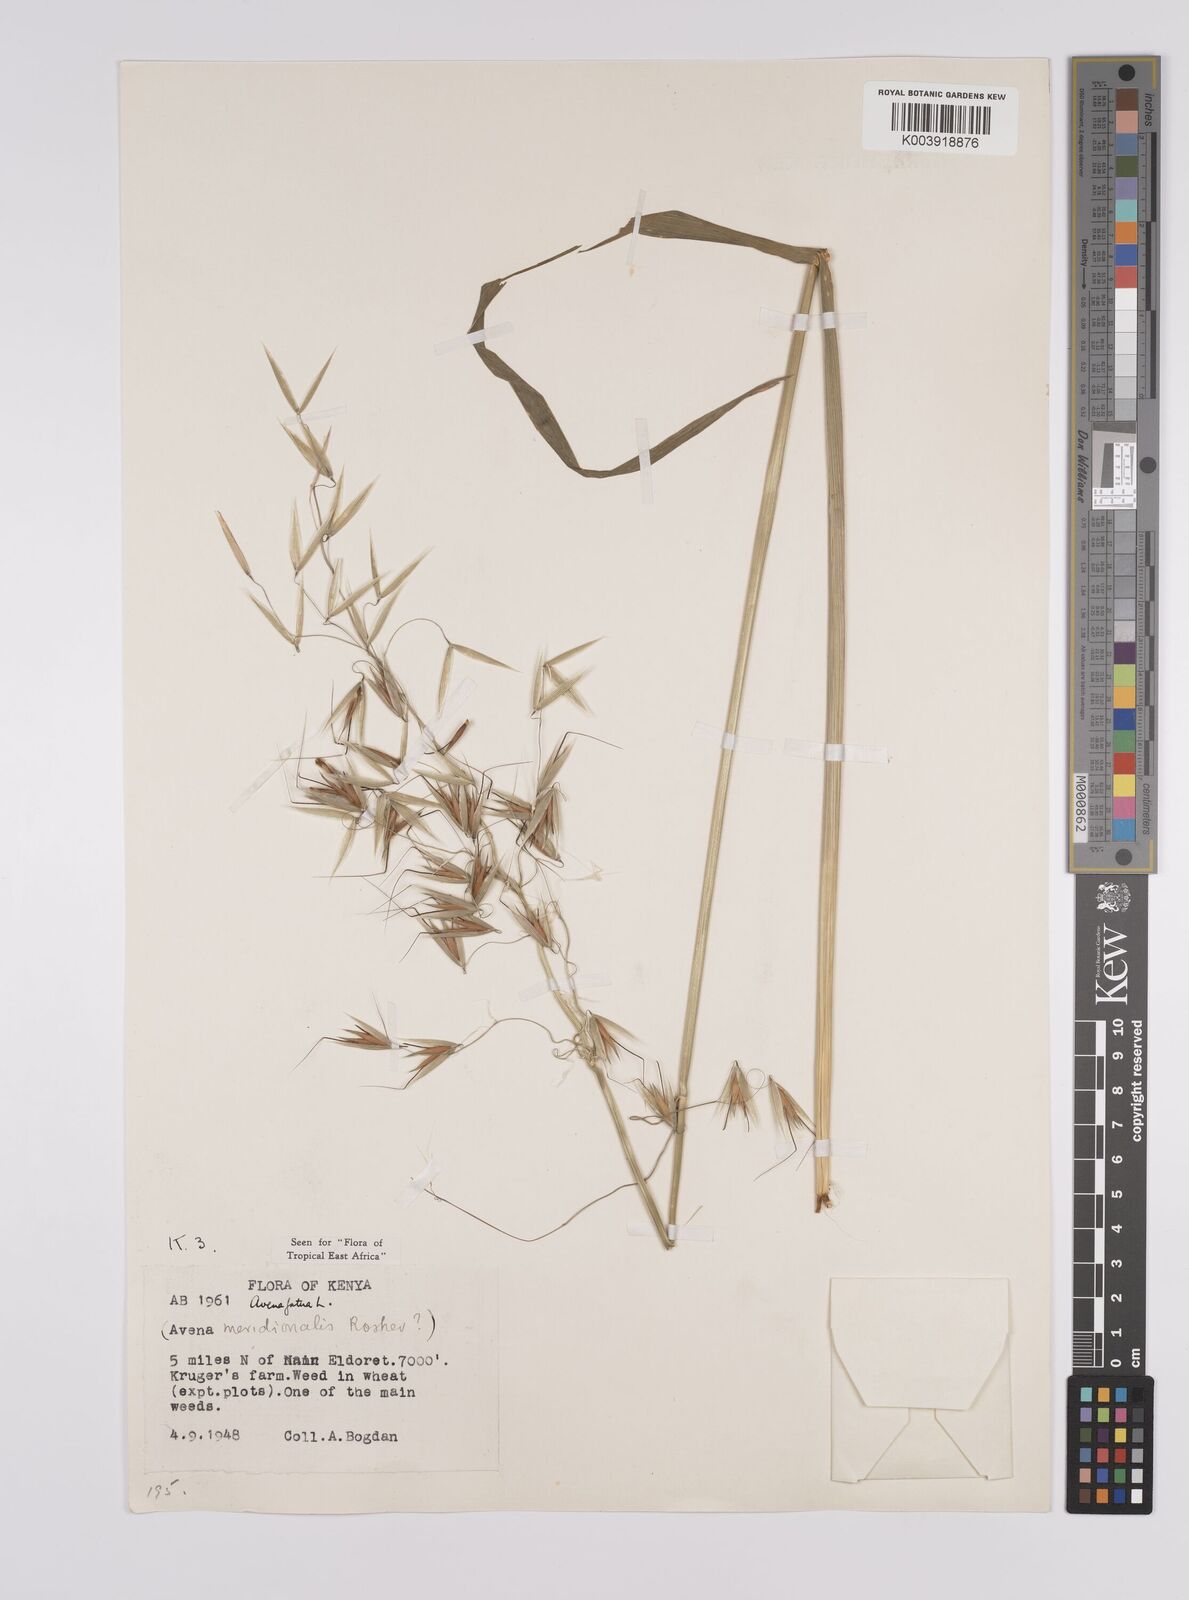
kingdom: Plantae
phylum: Tracheophyta
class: Liliopsida
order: Poales
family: Poaceae
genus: Avena
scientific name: Avena fatua
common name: Wild oat
